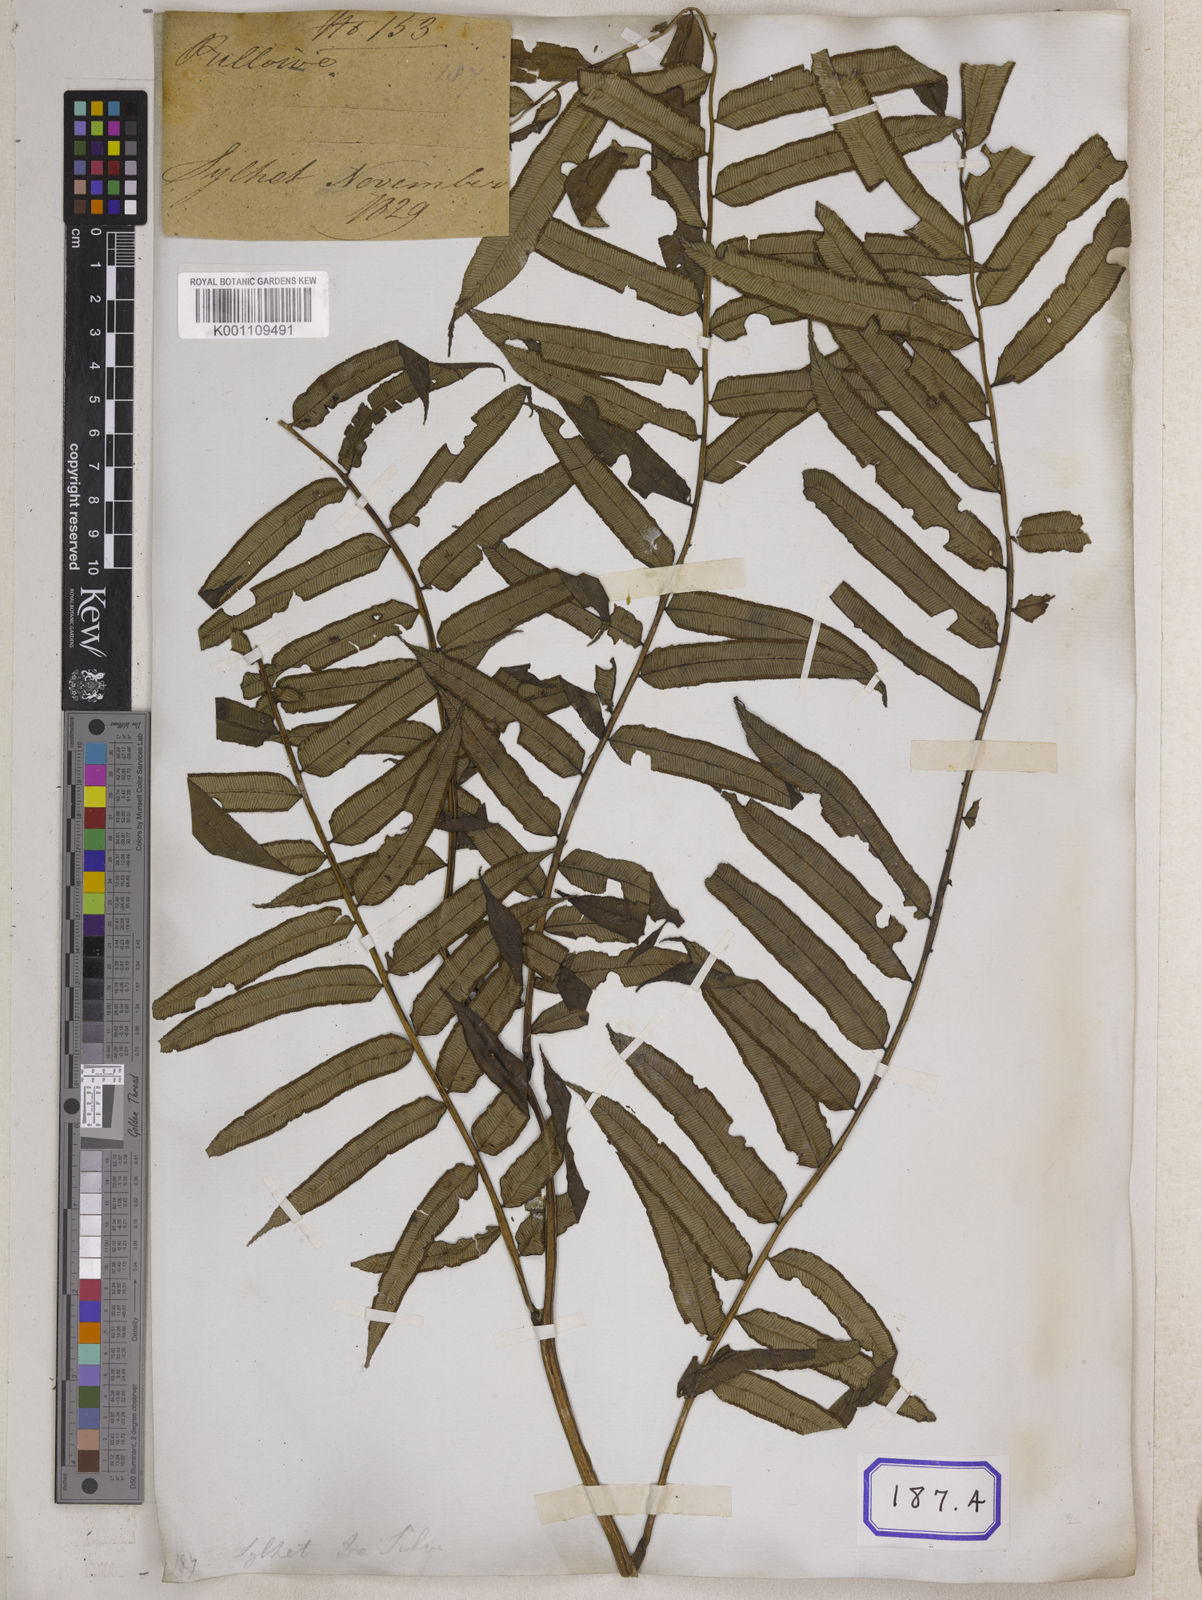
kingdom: Plantae
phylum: Tracheophyta
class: Polypodiopsida
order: Marattiales
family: Marattiaceae
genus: Angiopteris
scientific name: Angiopteris crassipes
